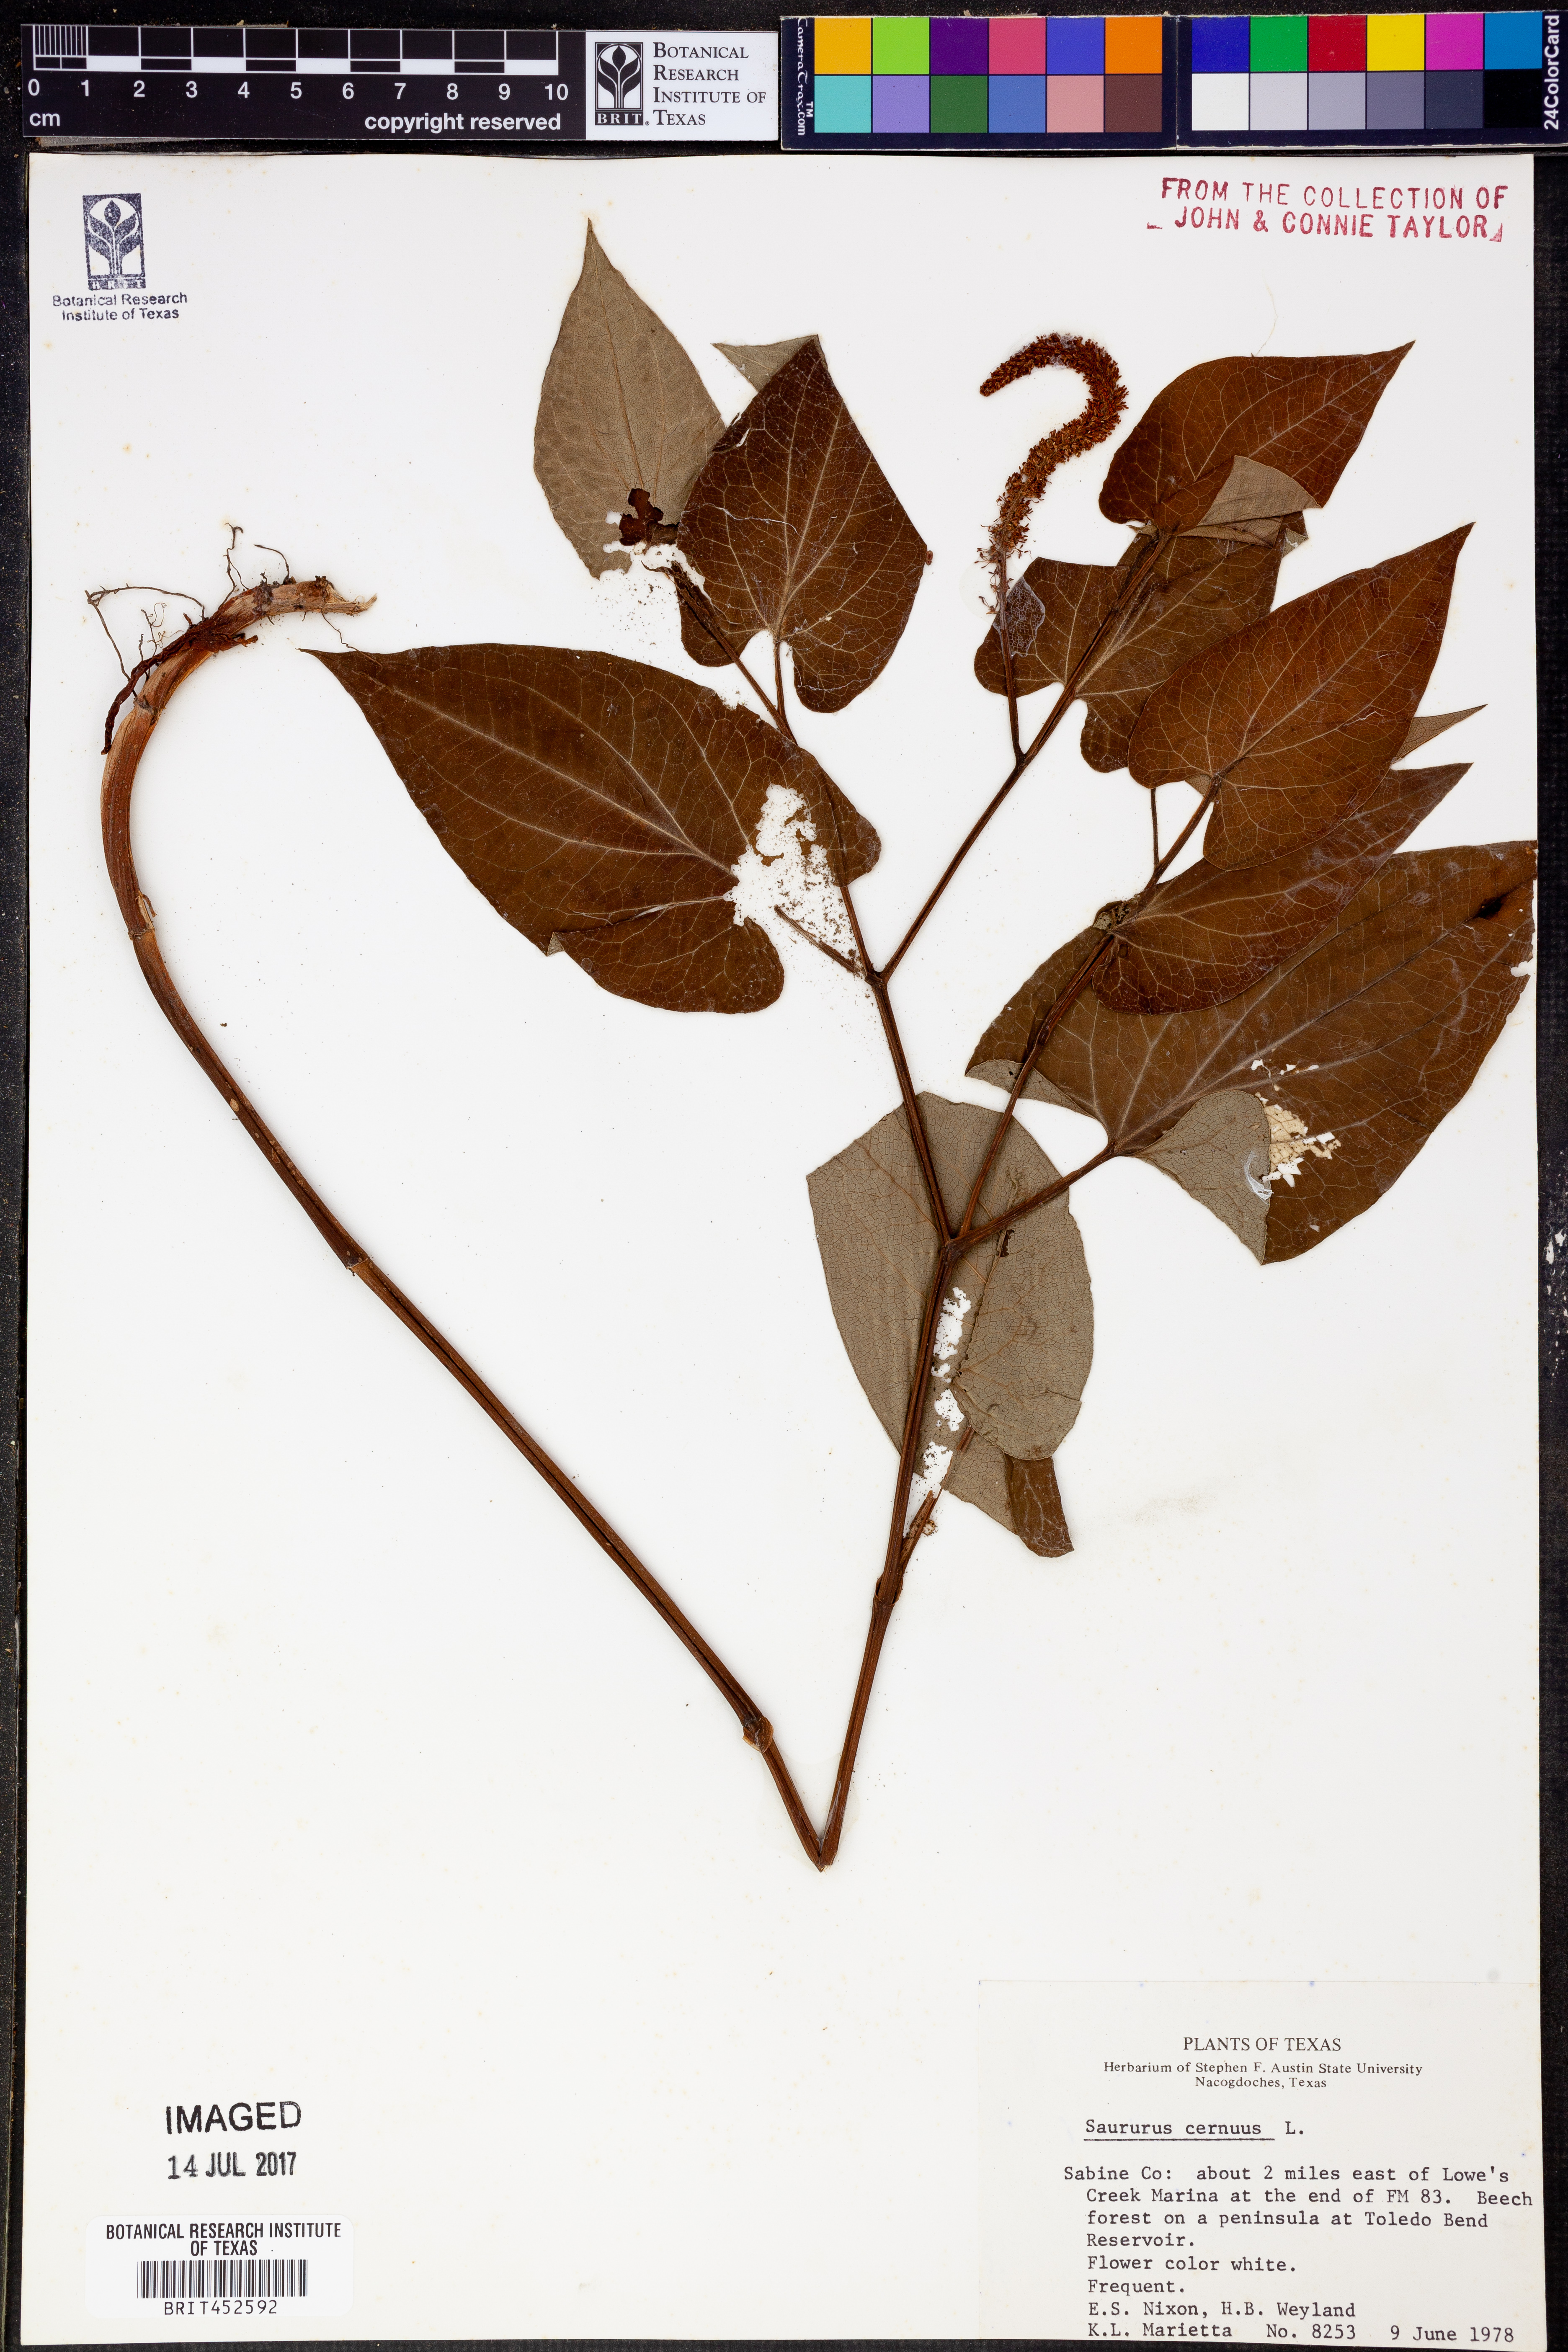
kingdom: Plantae
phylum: Tracheophyta
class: Magnoliopsida
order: Piperales
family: Saururaceae
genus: Saururus
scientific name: Saururus cernuus
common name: Lizard's-tail
